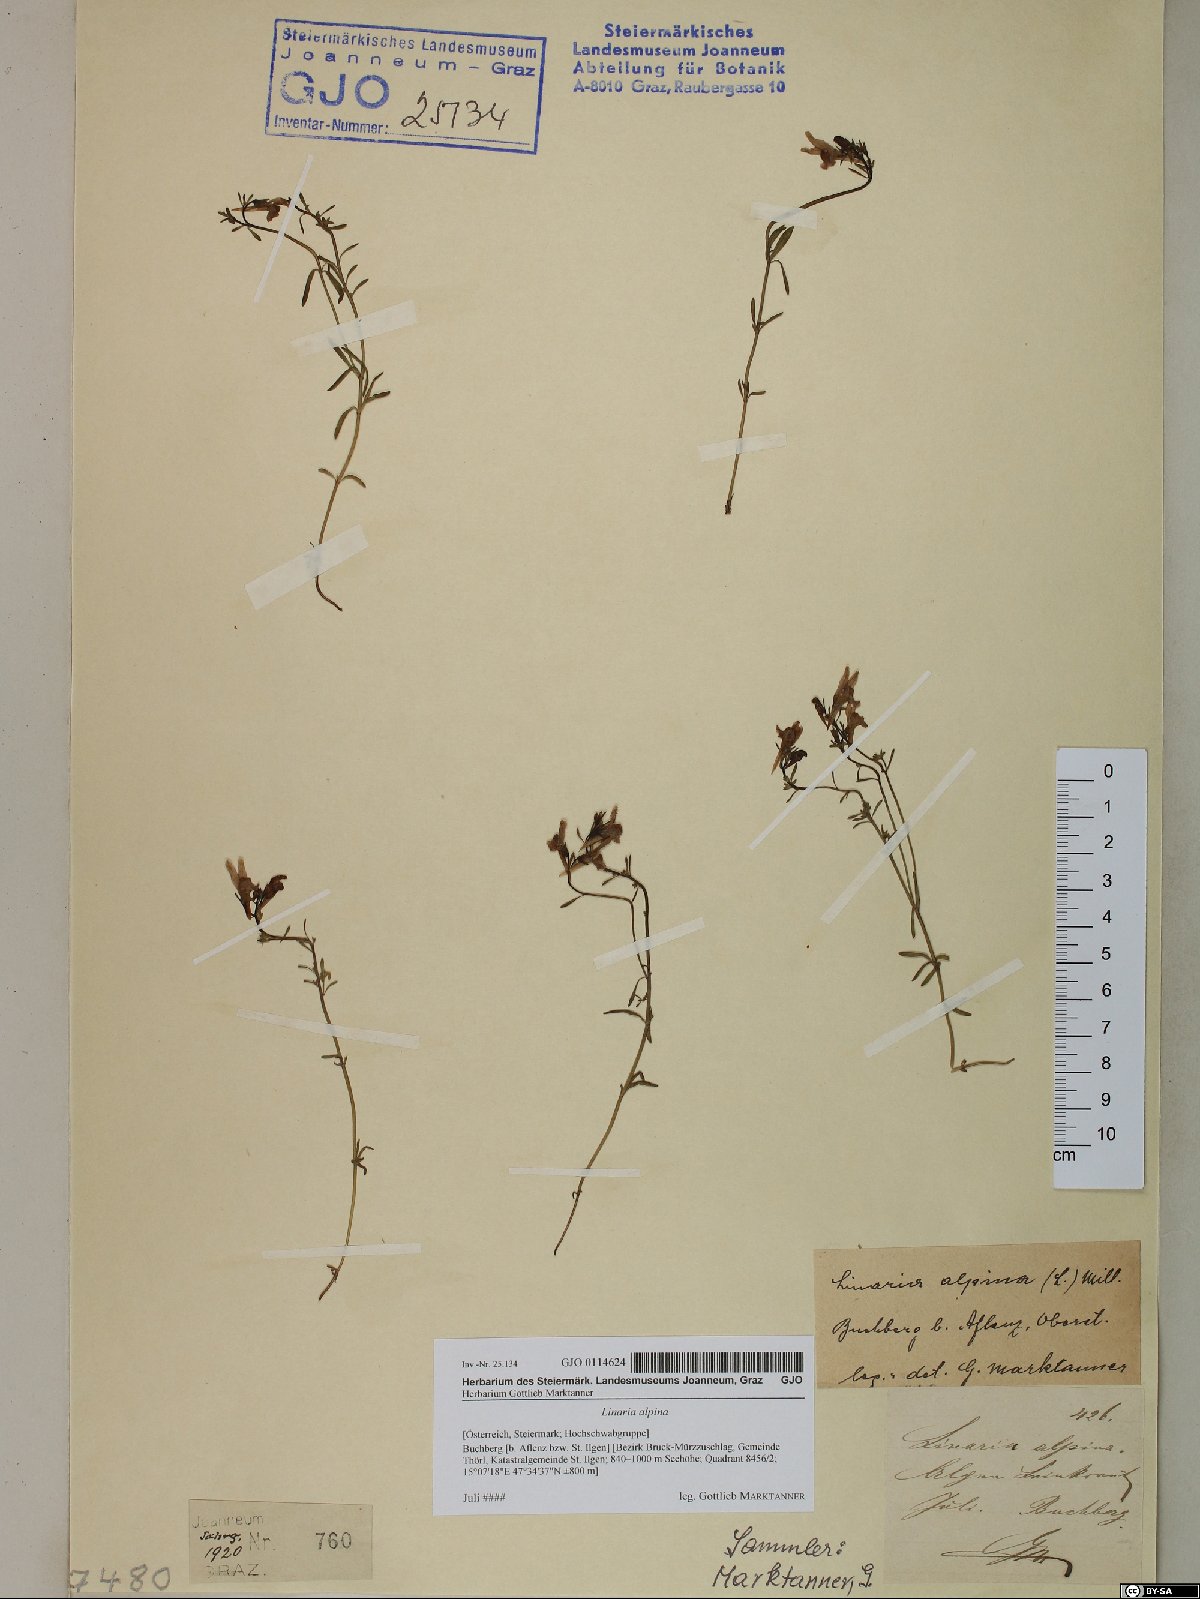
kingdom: Plantae
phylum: Tracheophyta
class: Magnoliopsida
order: Lamiales
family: Plantaginaceae
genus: Linaria
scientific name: Linaria alpina
